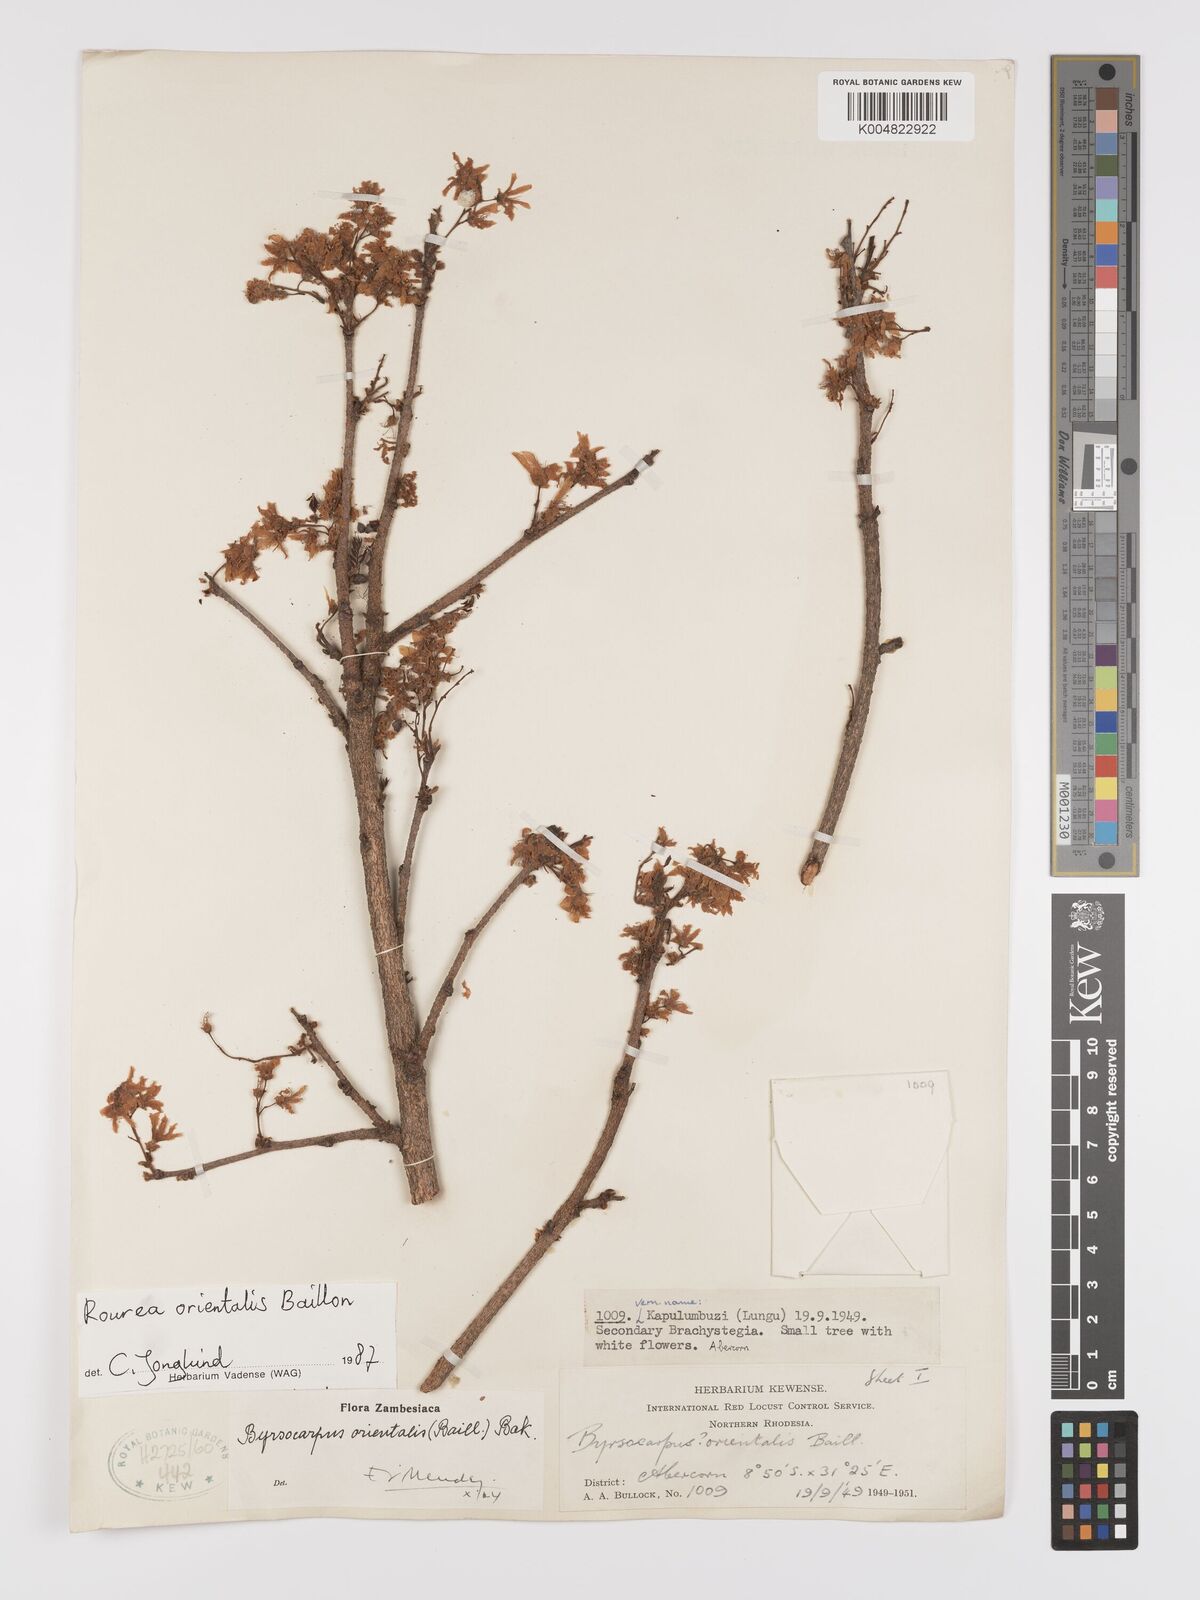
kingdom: Plantae
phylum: Tracheophyta
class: Magnoliopsida
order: Oxalidales
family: Connaraceae
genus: Rourea
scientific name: Rourea orientalis
